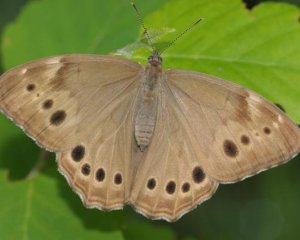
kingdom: Animalia
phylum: Arthropoda
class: Insecta
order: Lepidoptera
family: Nymphalidae
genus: Lethe
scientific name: Lethe anthedon
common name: Northern Pearly-Eye
